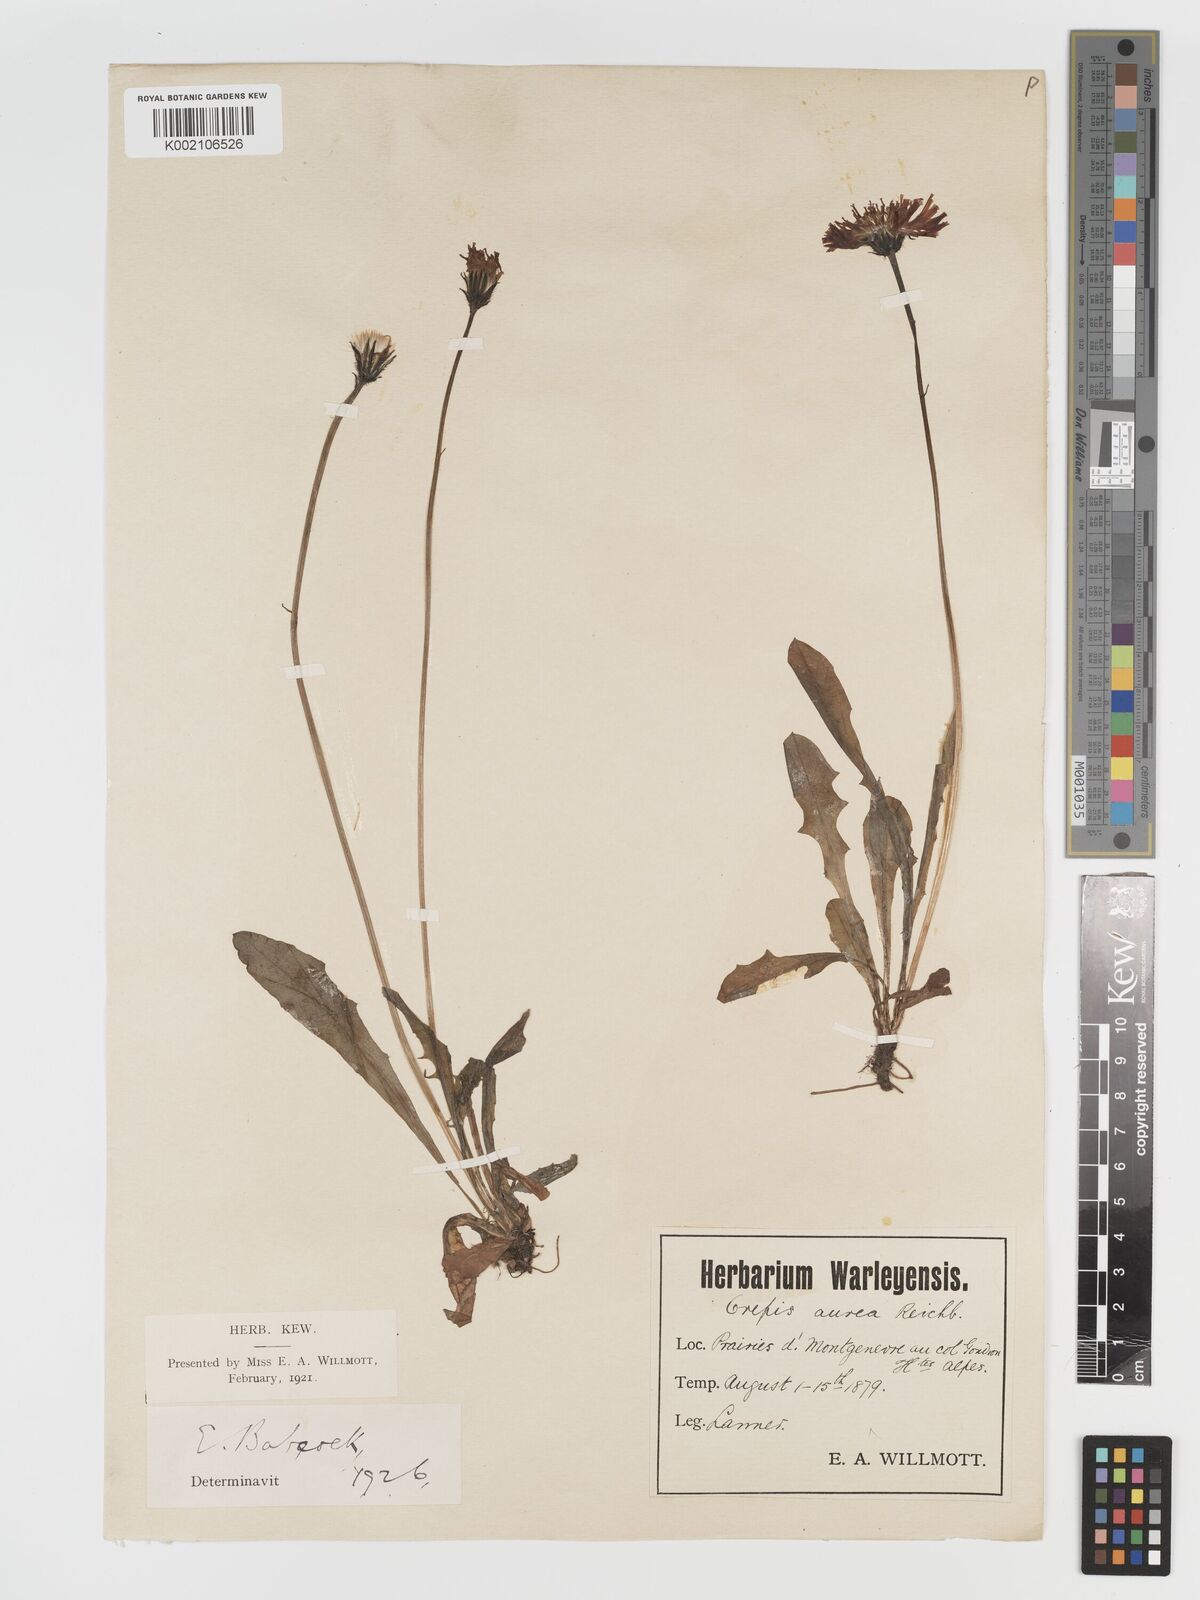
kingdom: Plantae
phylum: Tracheophyta
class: Magnoliopsida
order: Asterales
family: Asteraceae
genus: Crepis
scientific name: Crepis aurea
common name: Golden hawk's-beard
